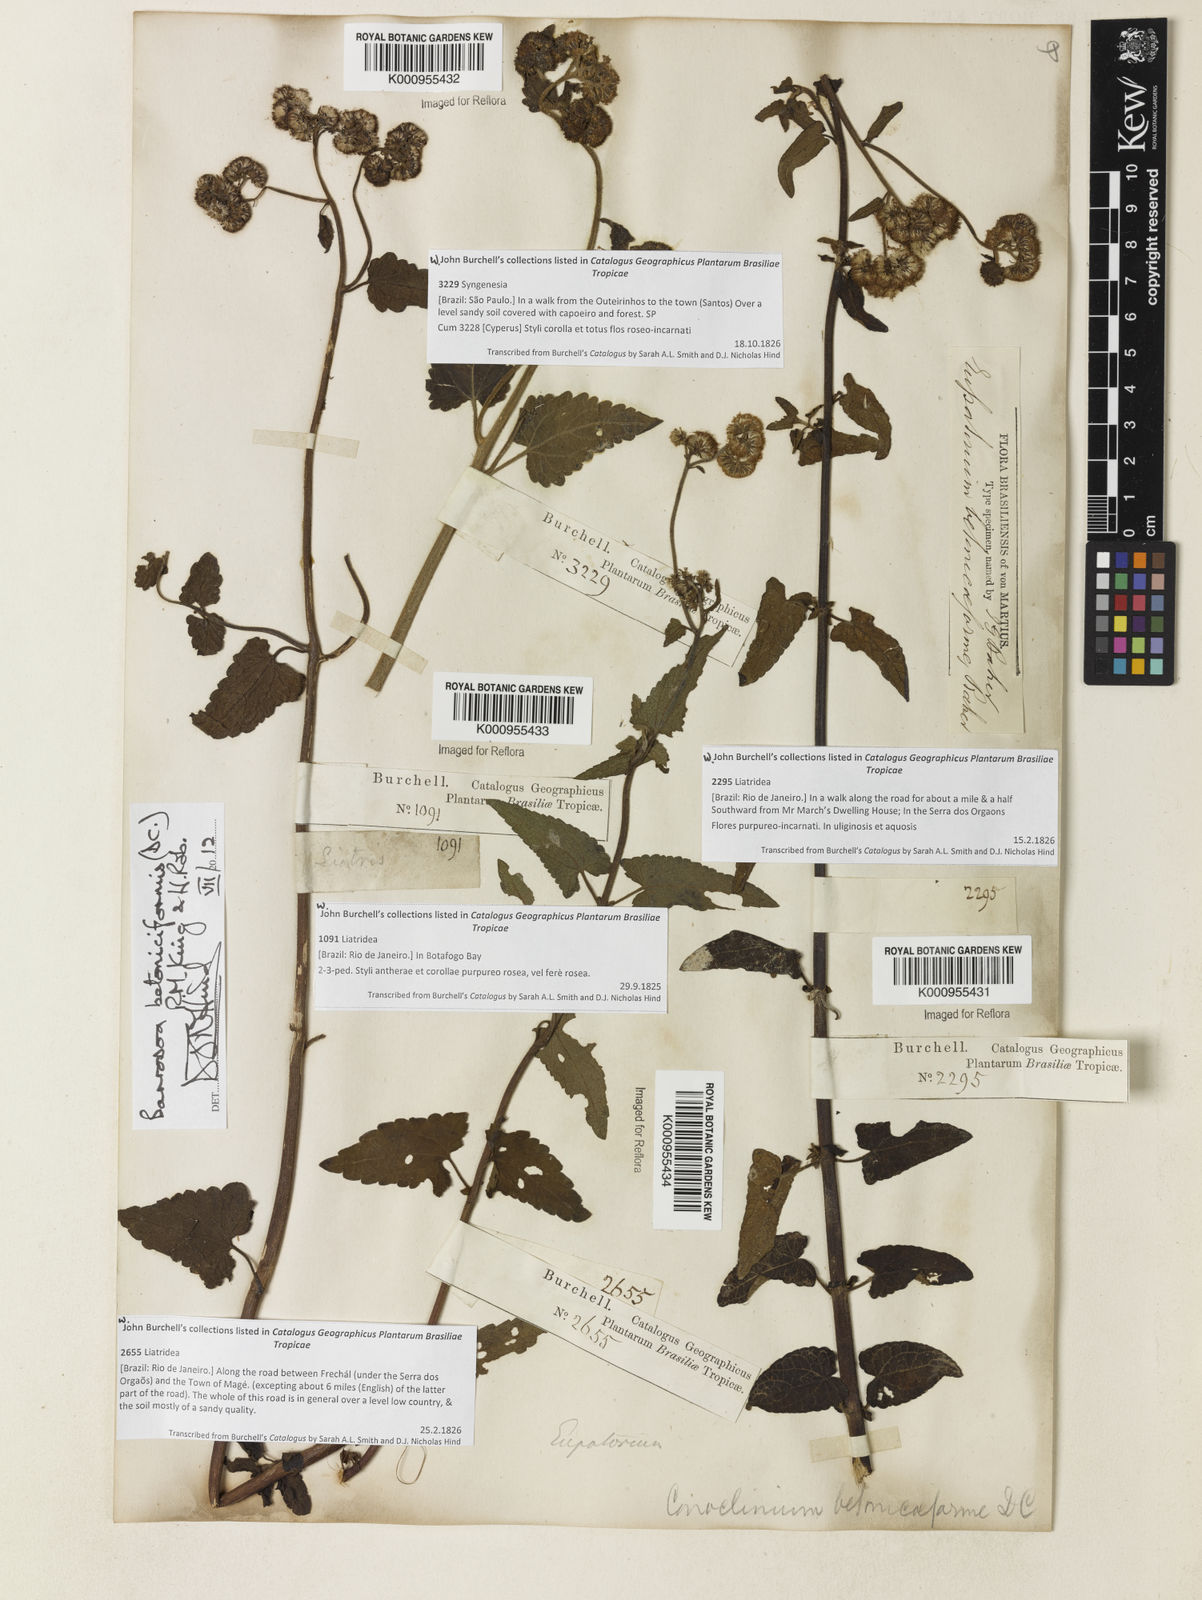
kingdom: Plantae
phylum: Tracheophyta
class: Magnoliopsida
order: Asterales
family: Asteraceae
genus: Barrosoa
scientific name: Barrosoa betoniciformis
